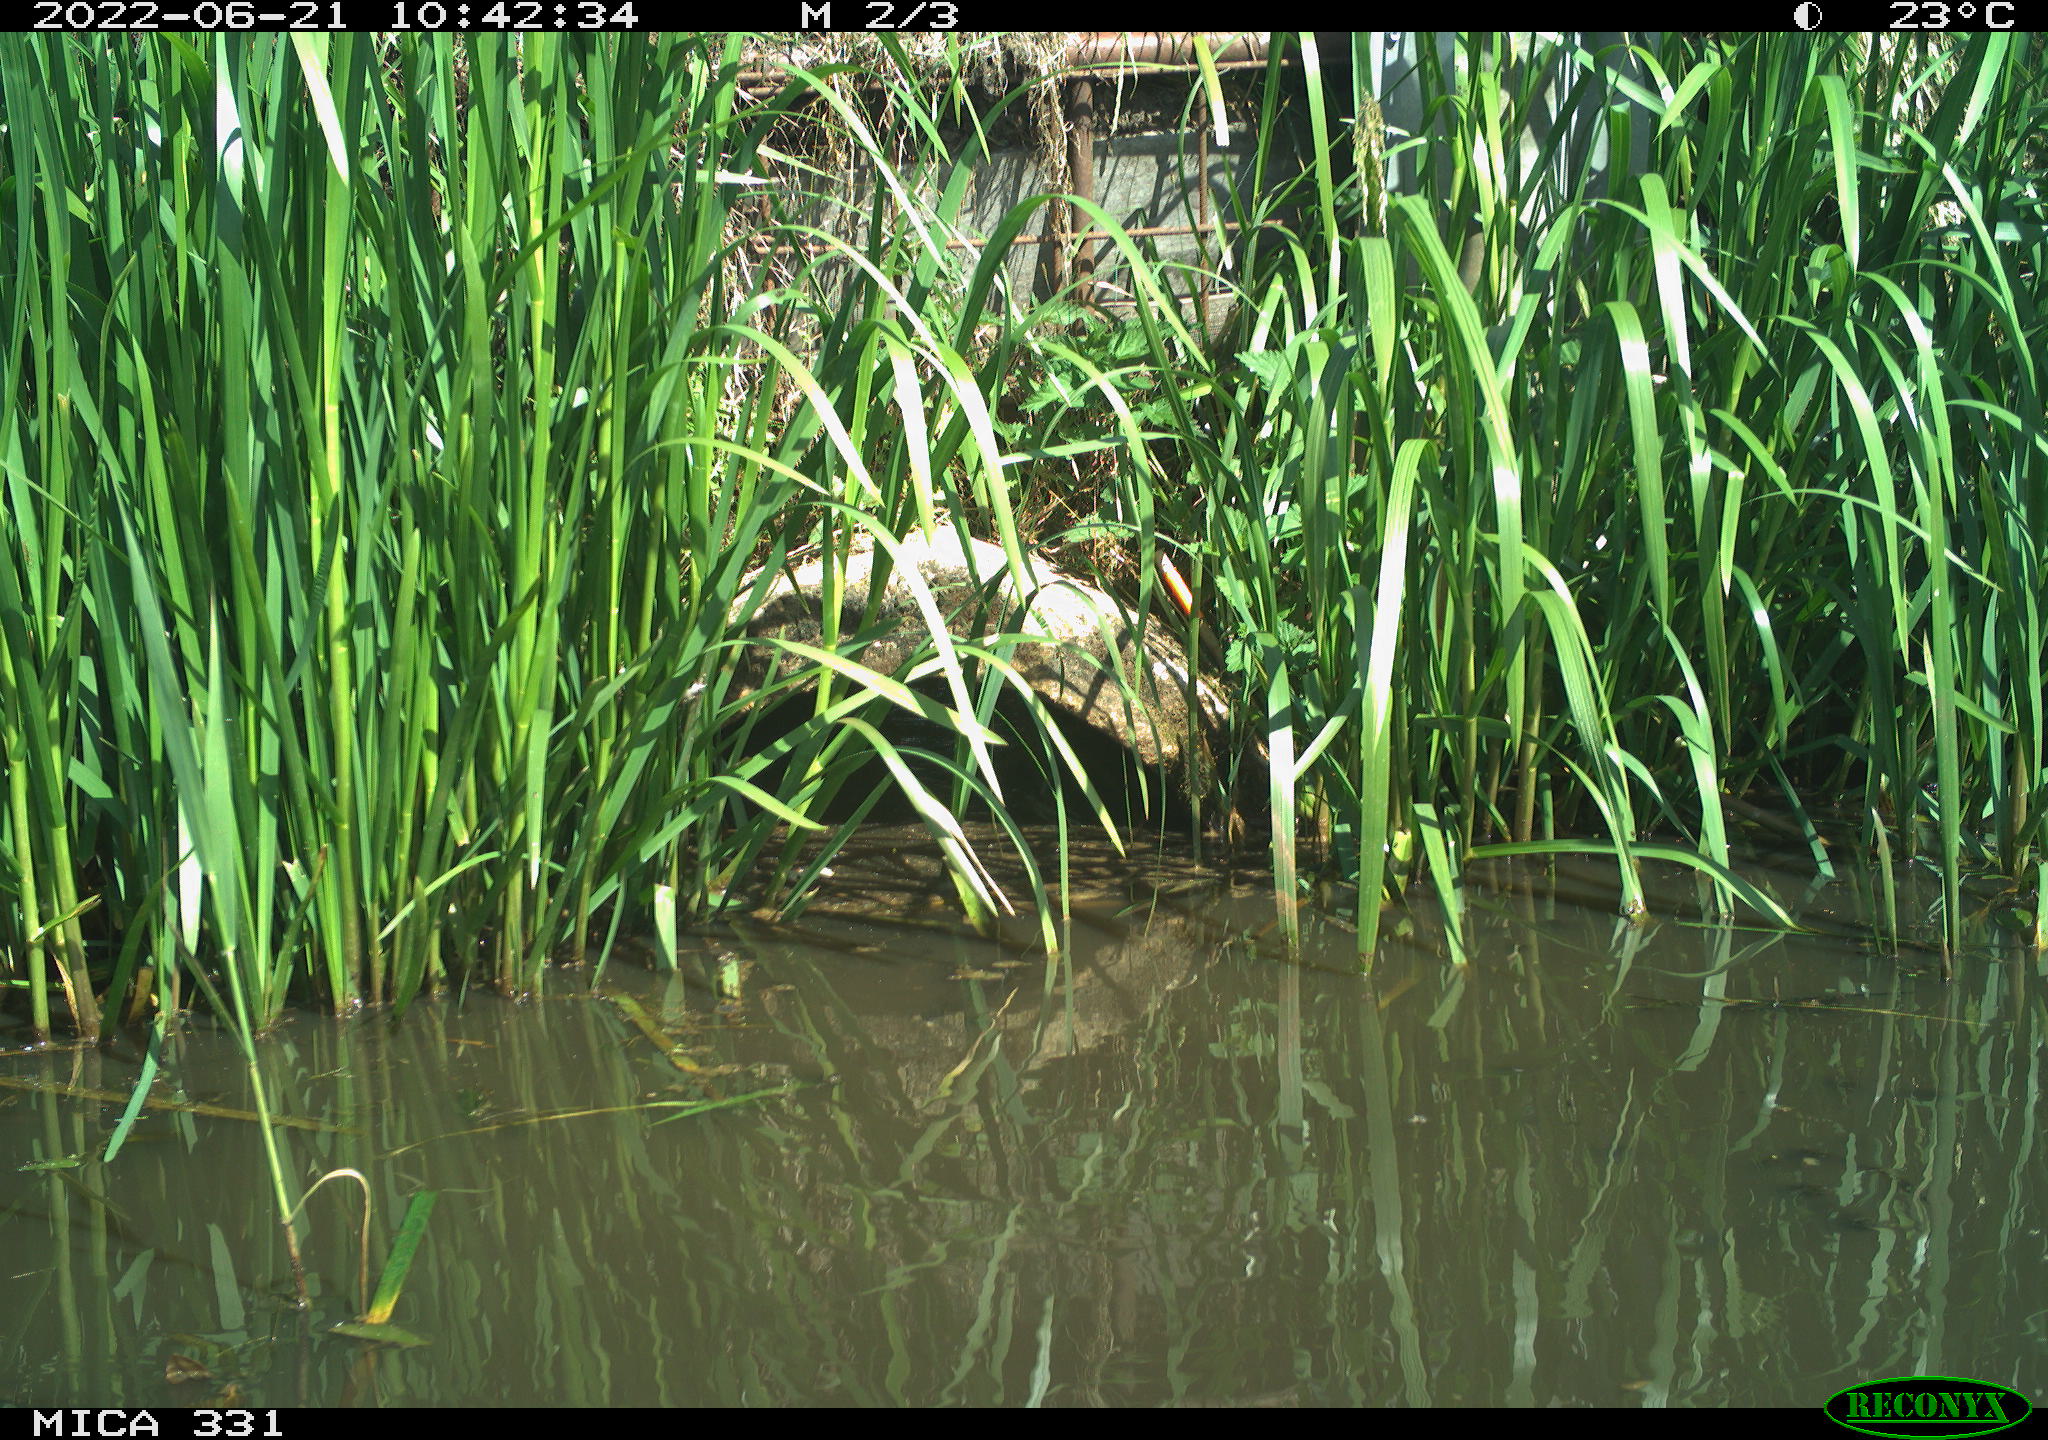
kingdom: Animalia
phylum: Chordata
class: Aves
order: Gruiformes
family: Rallidae
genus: Fulica
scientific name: Fulica atra
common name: Eurasian coot
